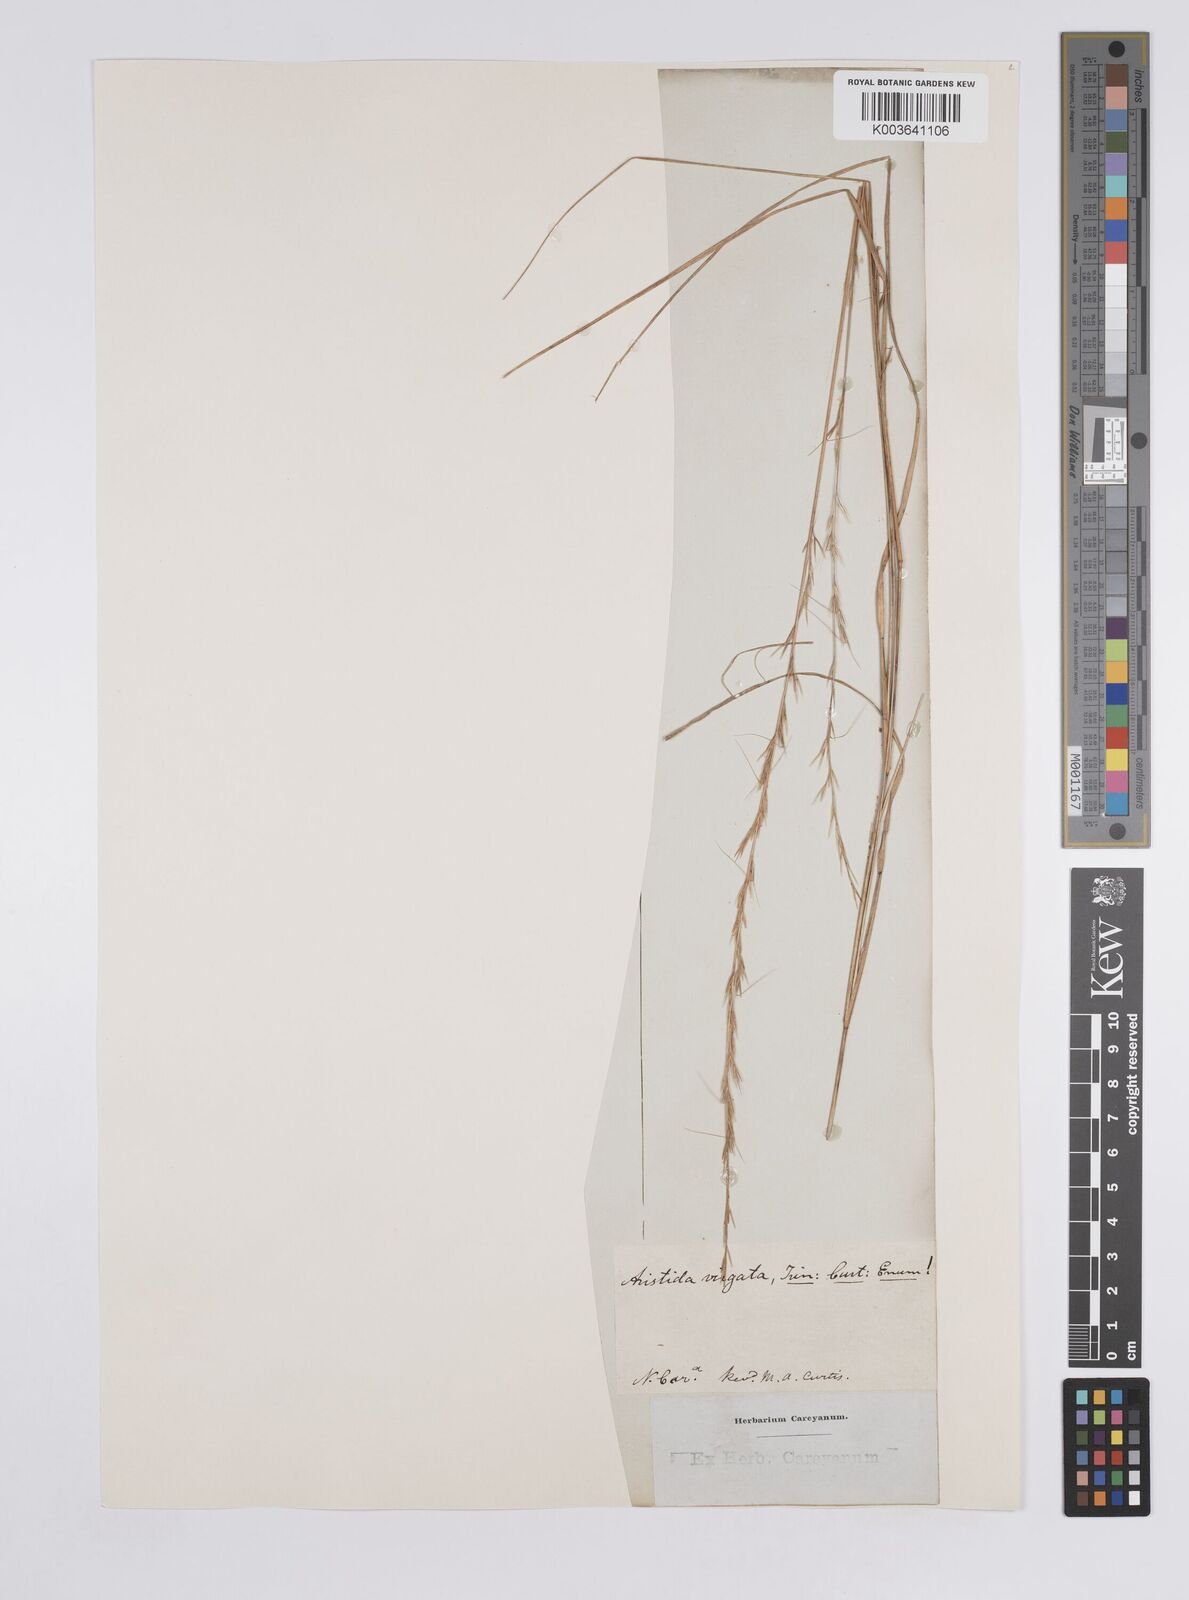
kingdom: Plantae
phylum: Tracheophyta
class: Liliopsida
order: Poales
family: Poaceae
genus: Aristida
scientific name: Aristida purpurascens
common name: Arrow-feather
